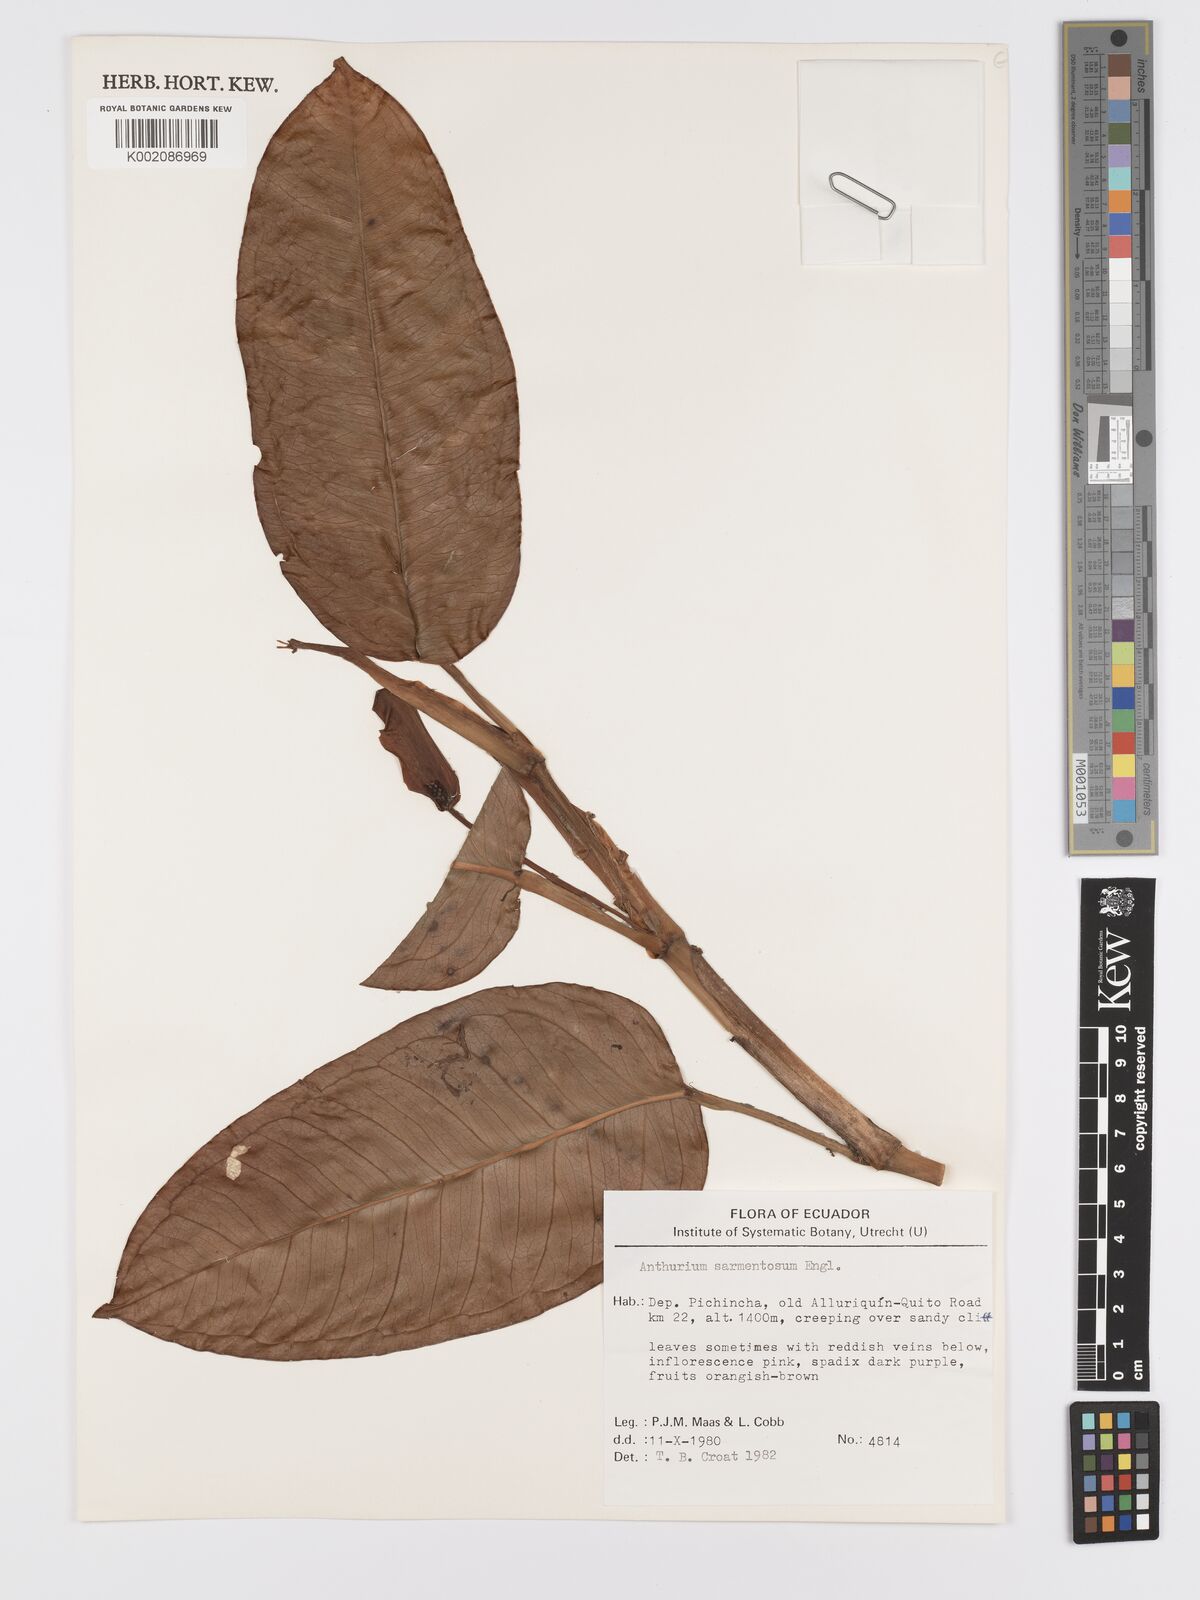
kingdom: Plantae
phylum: Tracheophyta
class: Liliopsida
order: Alismatales
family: Araceae
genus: Anthurium
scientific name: Anthurium sarmentosum
